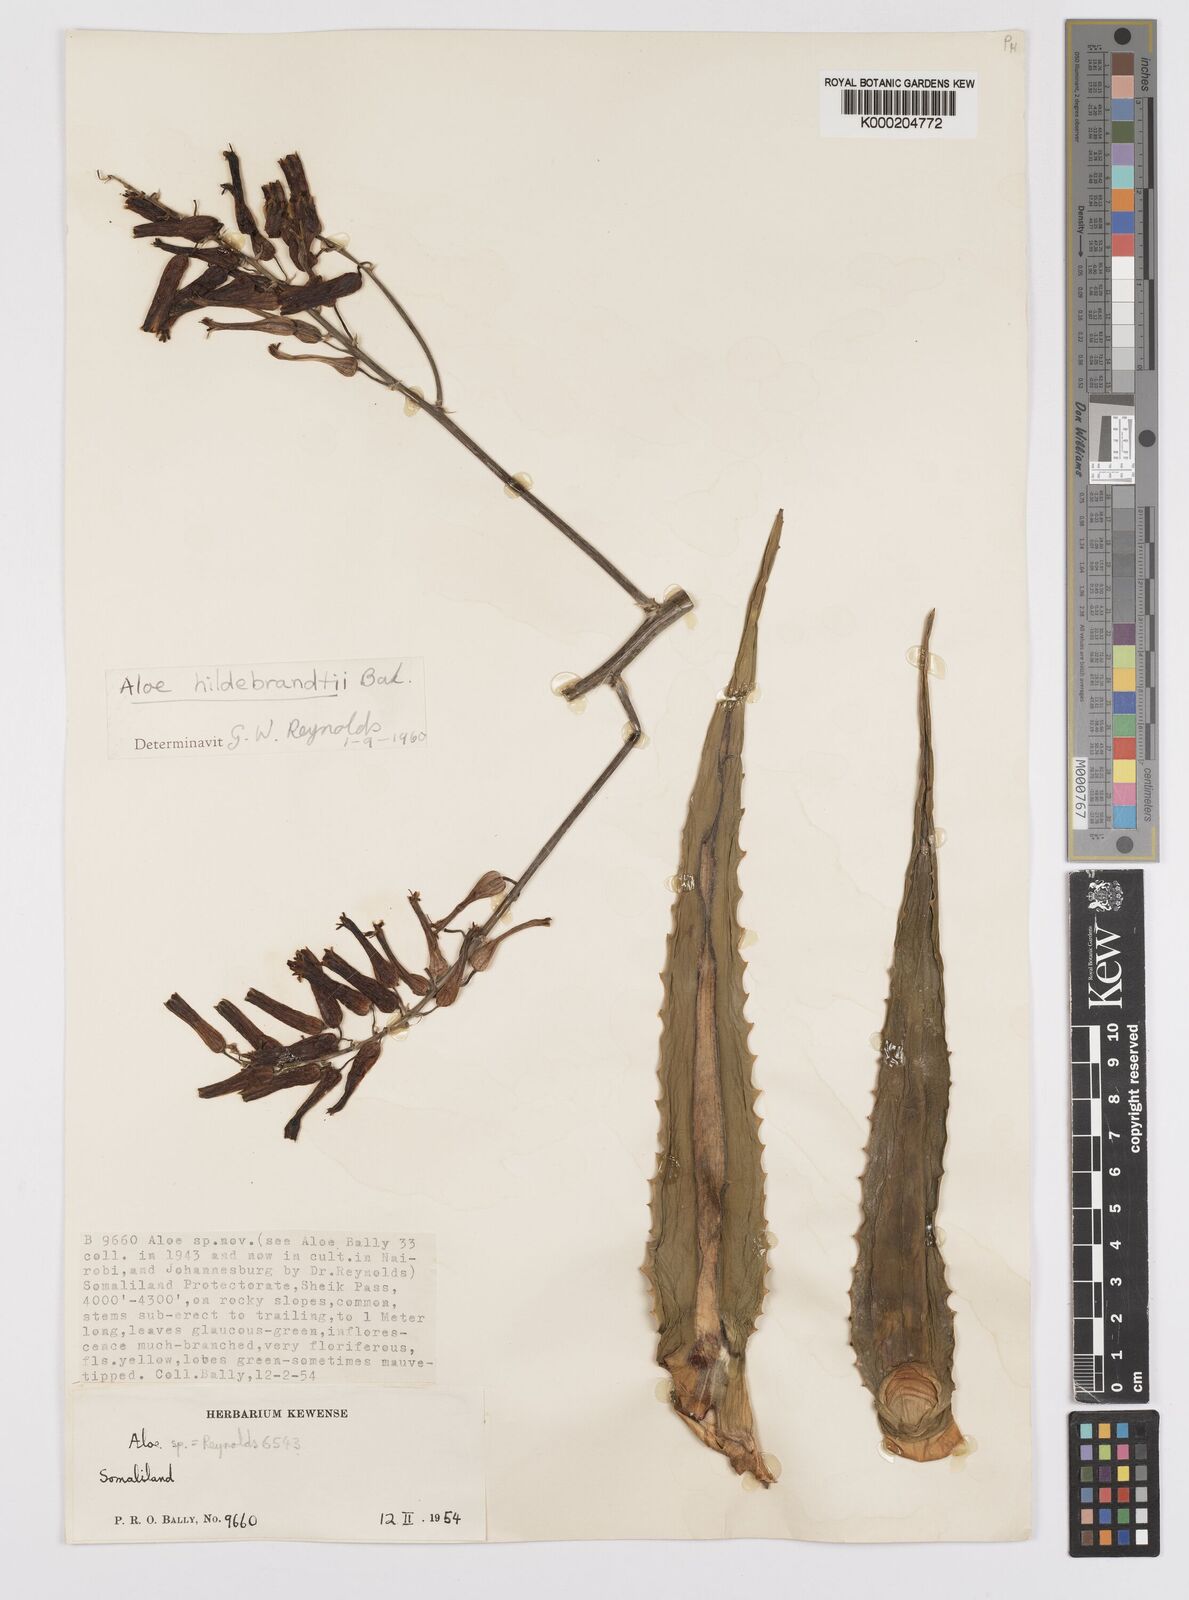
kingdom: Plantae
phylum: Tracheophyta
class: Liliopsida
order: Asparagales
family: Asphodelaceae
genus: Aloe
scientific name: Aloe hildebrandtii
